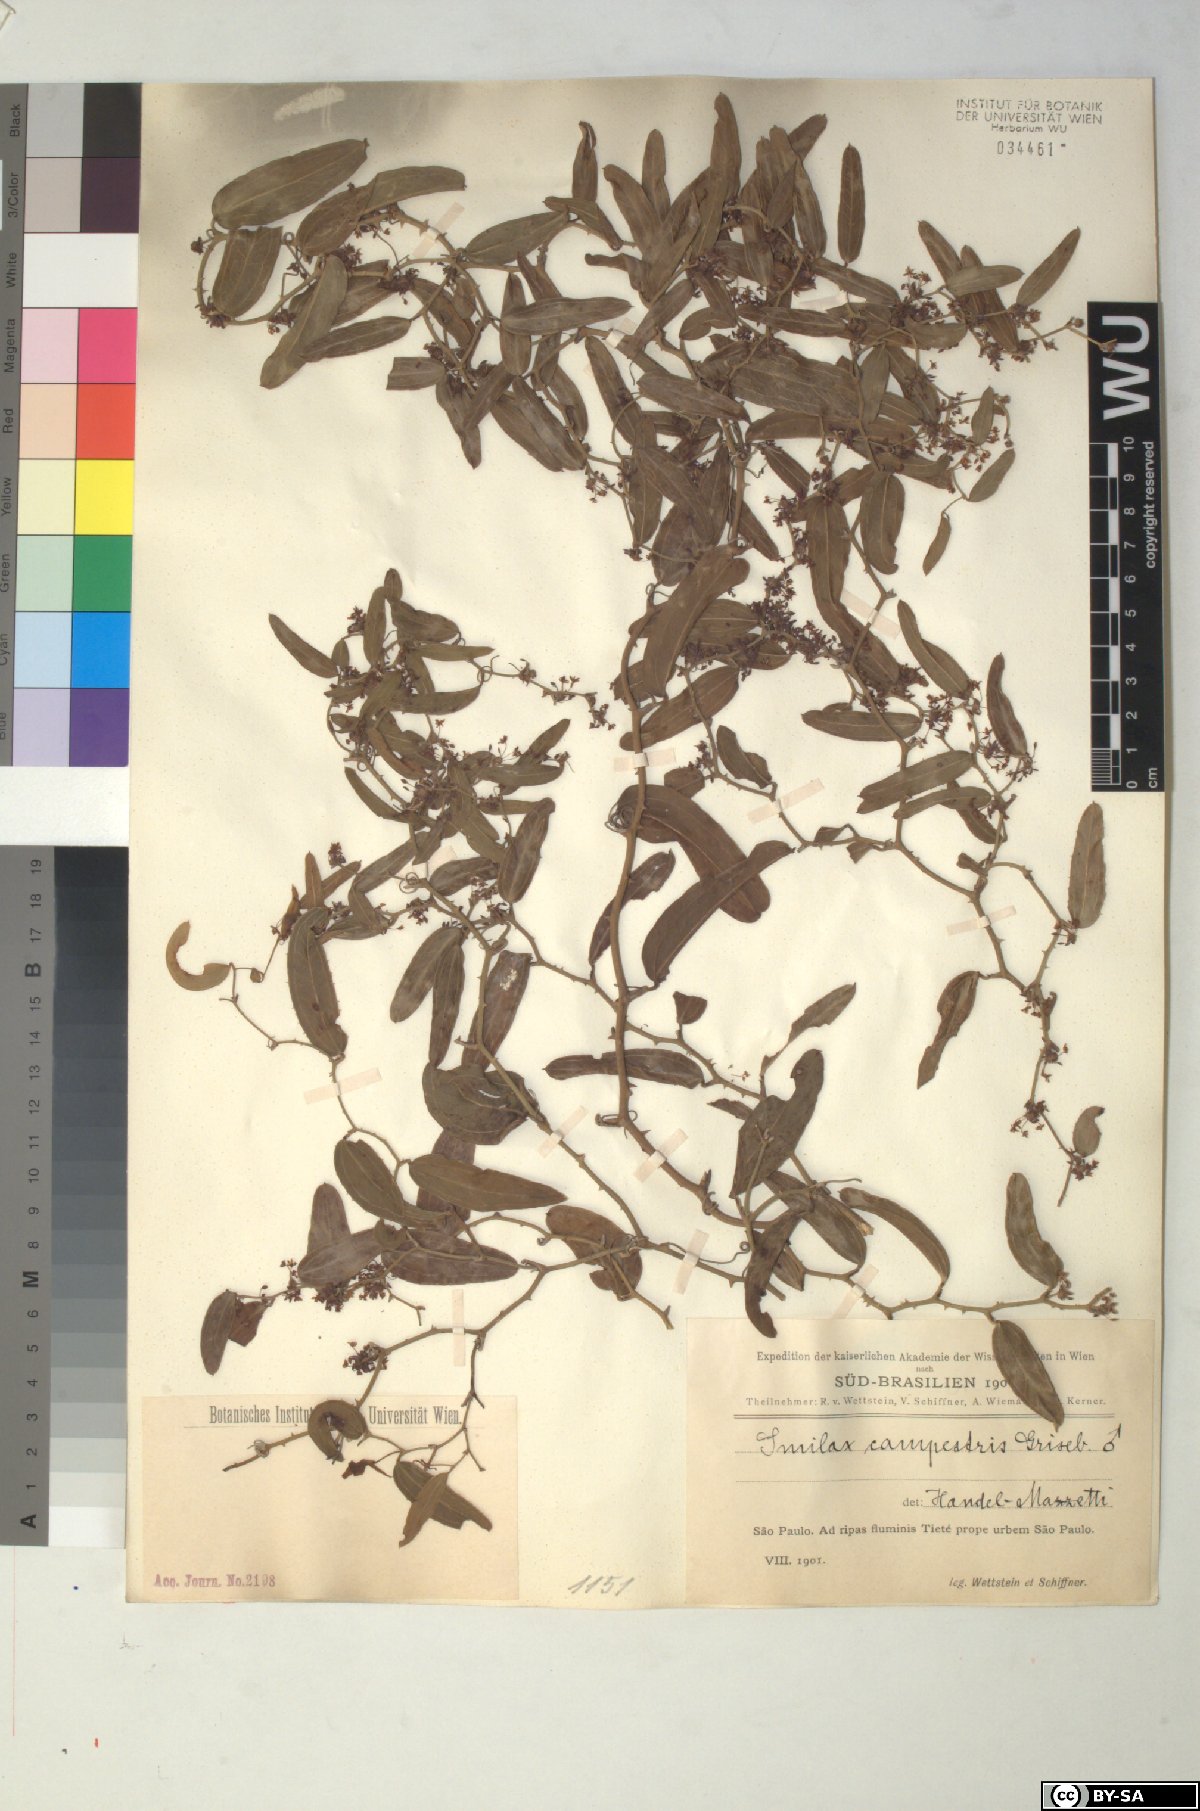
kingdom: Plantae
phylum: Tracheophyta
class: Liliopsida
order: Liliales
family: Smilacaceae
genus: Smilax
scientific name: Smilax campestris
